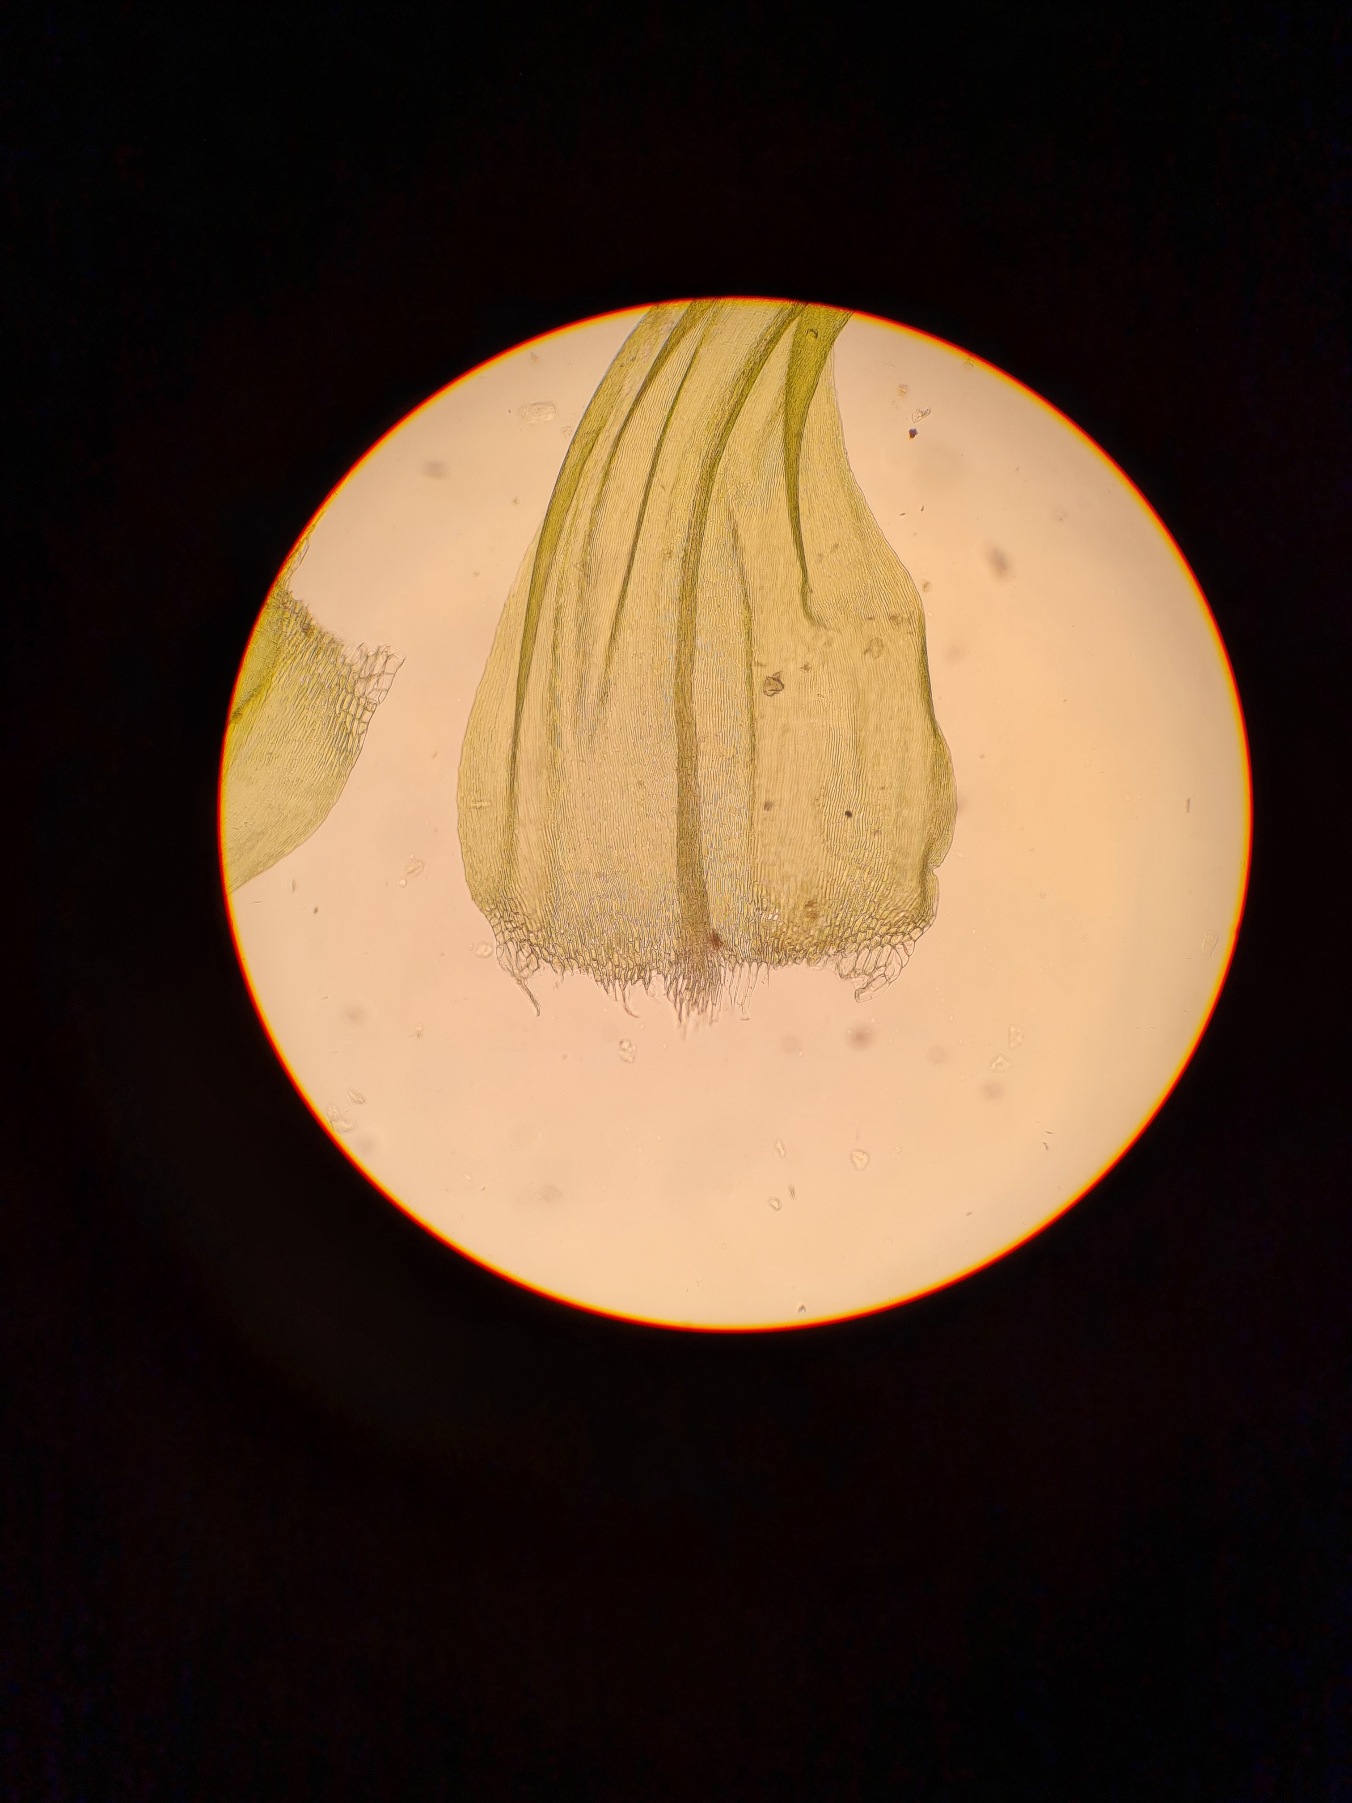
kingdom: Plantae
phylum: Bryophyta
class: Bryopsida
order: Hypnales
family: Scorpidiaceae
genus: Sanionia
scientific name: Sanionia uncinata
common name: Stribet krogblad
